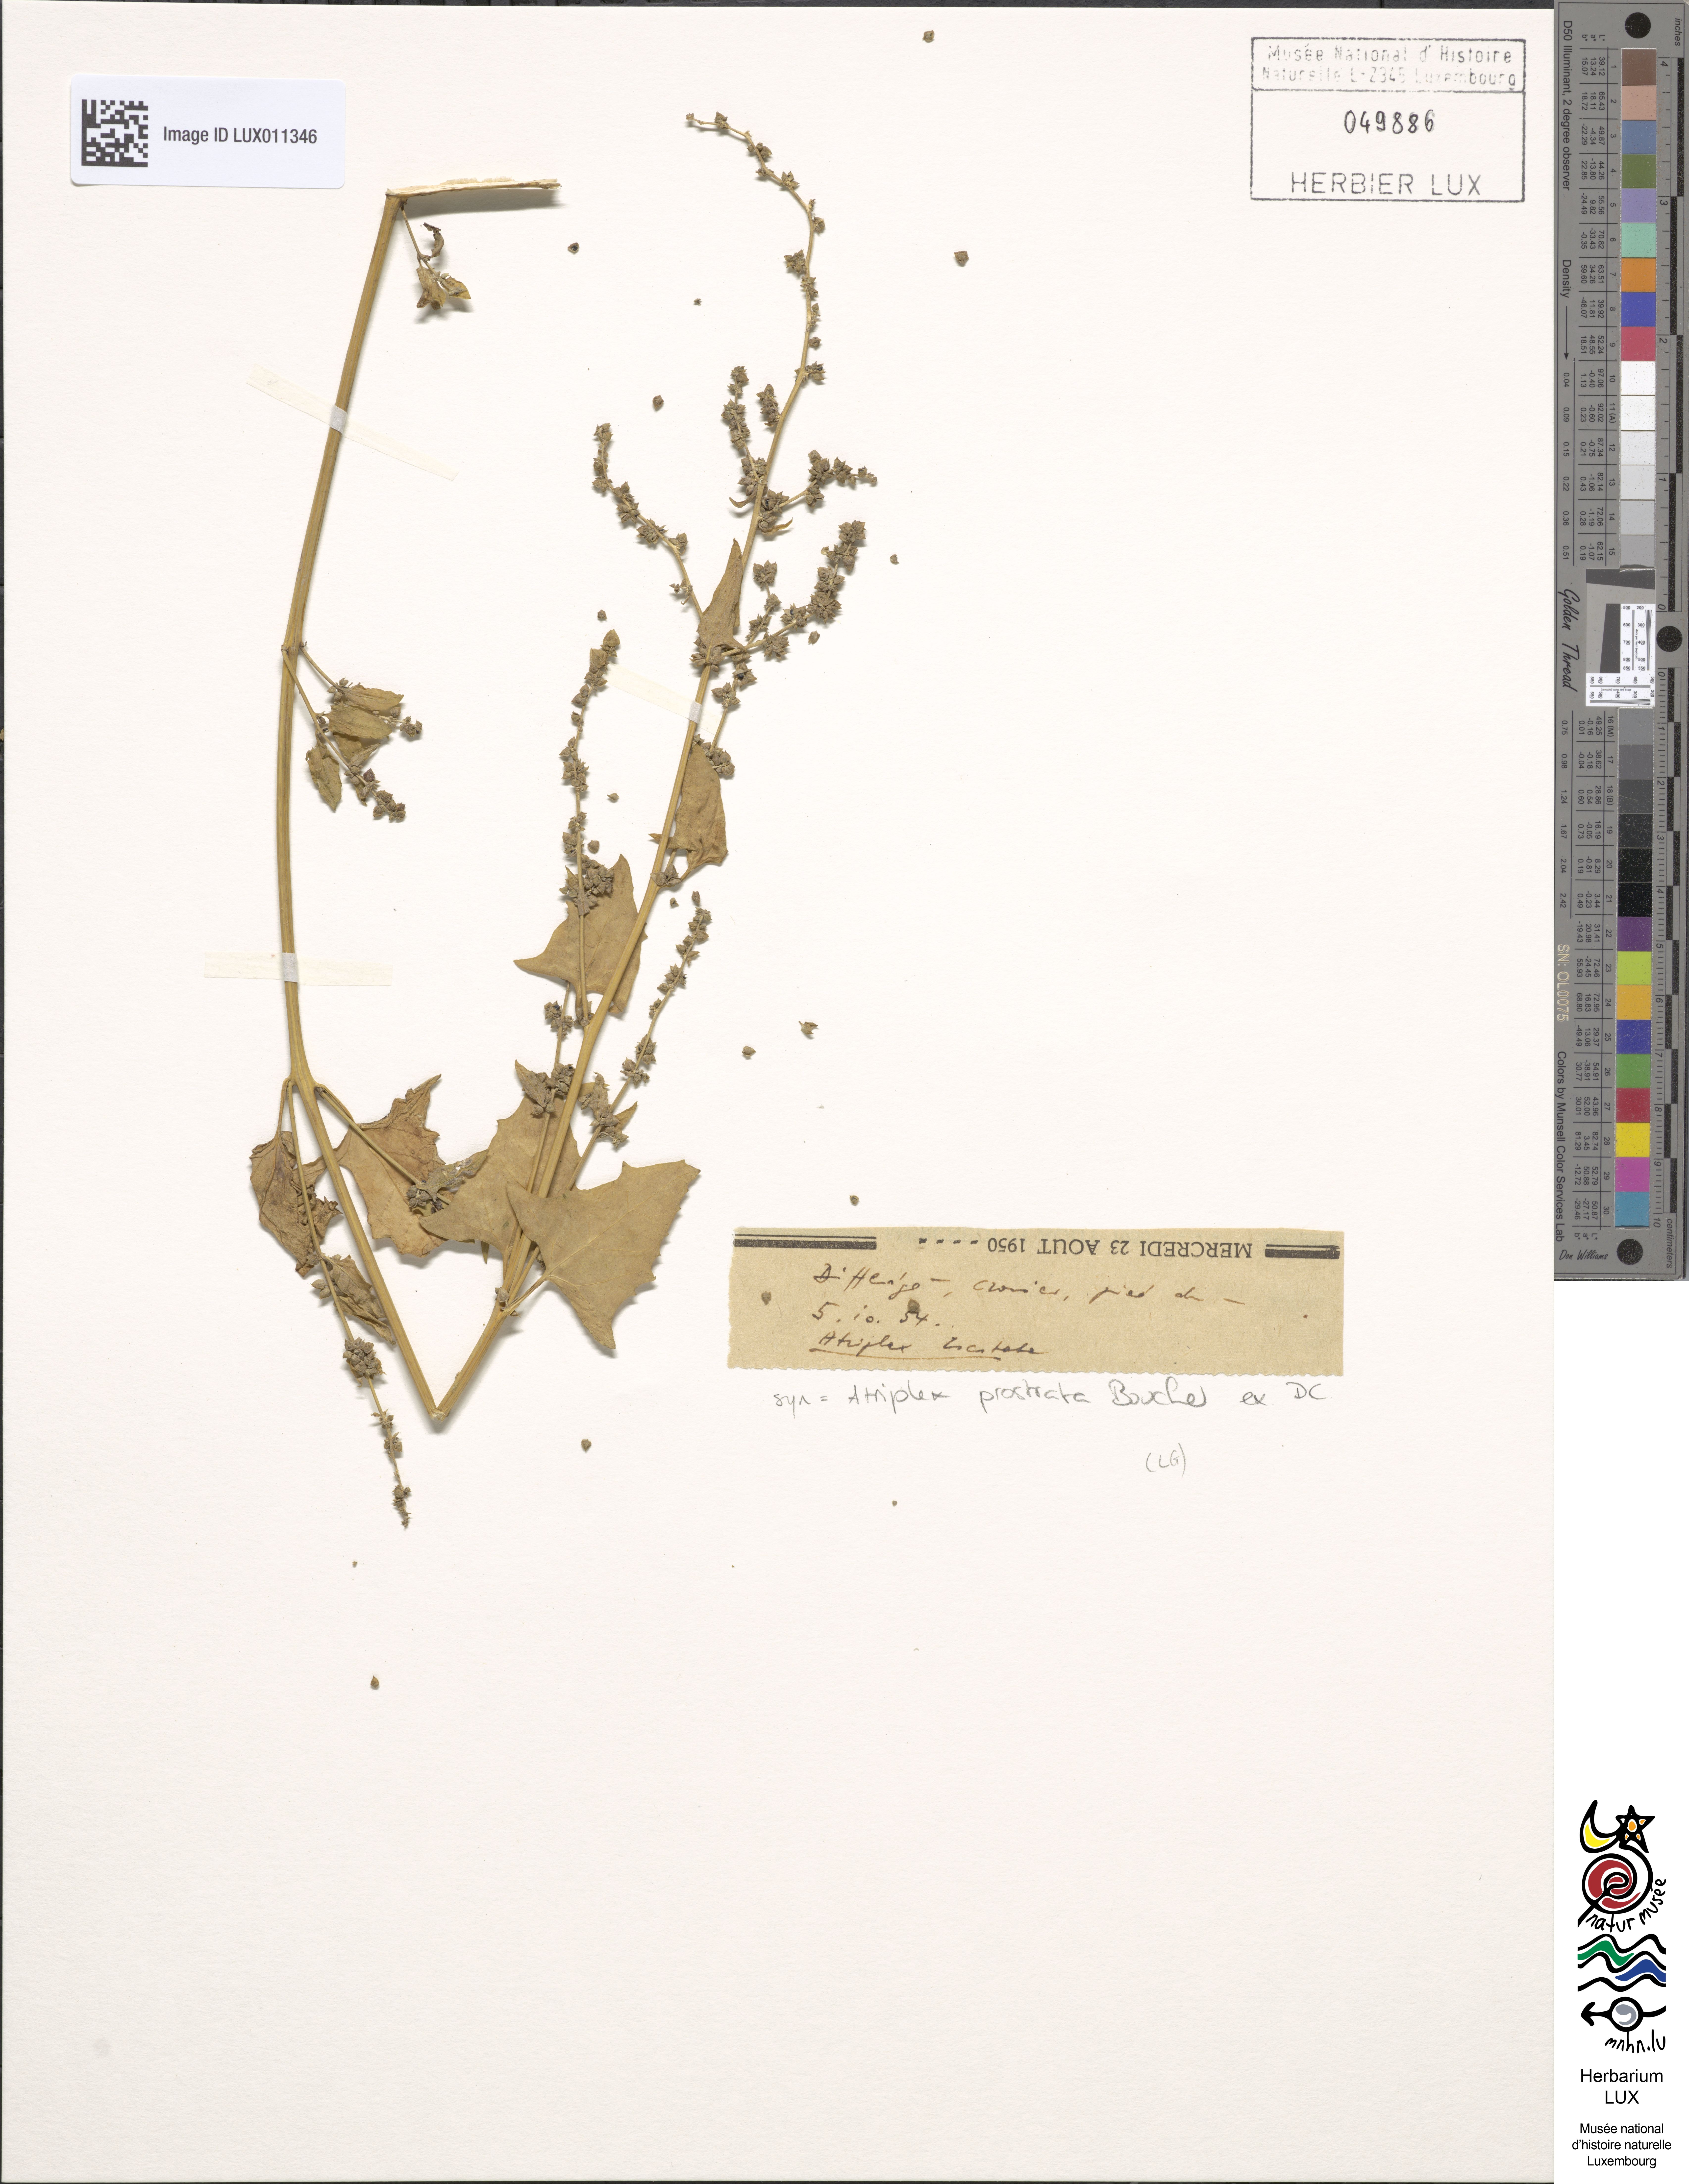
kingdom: Plantae
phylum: Tracheophyta
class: Magnoliopsida
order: Caryophyllales
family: Amaranthaceae
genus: Atriplex
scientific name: Atriplex
